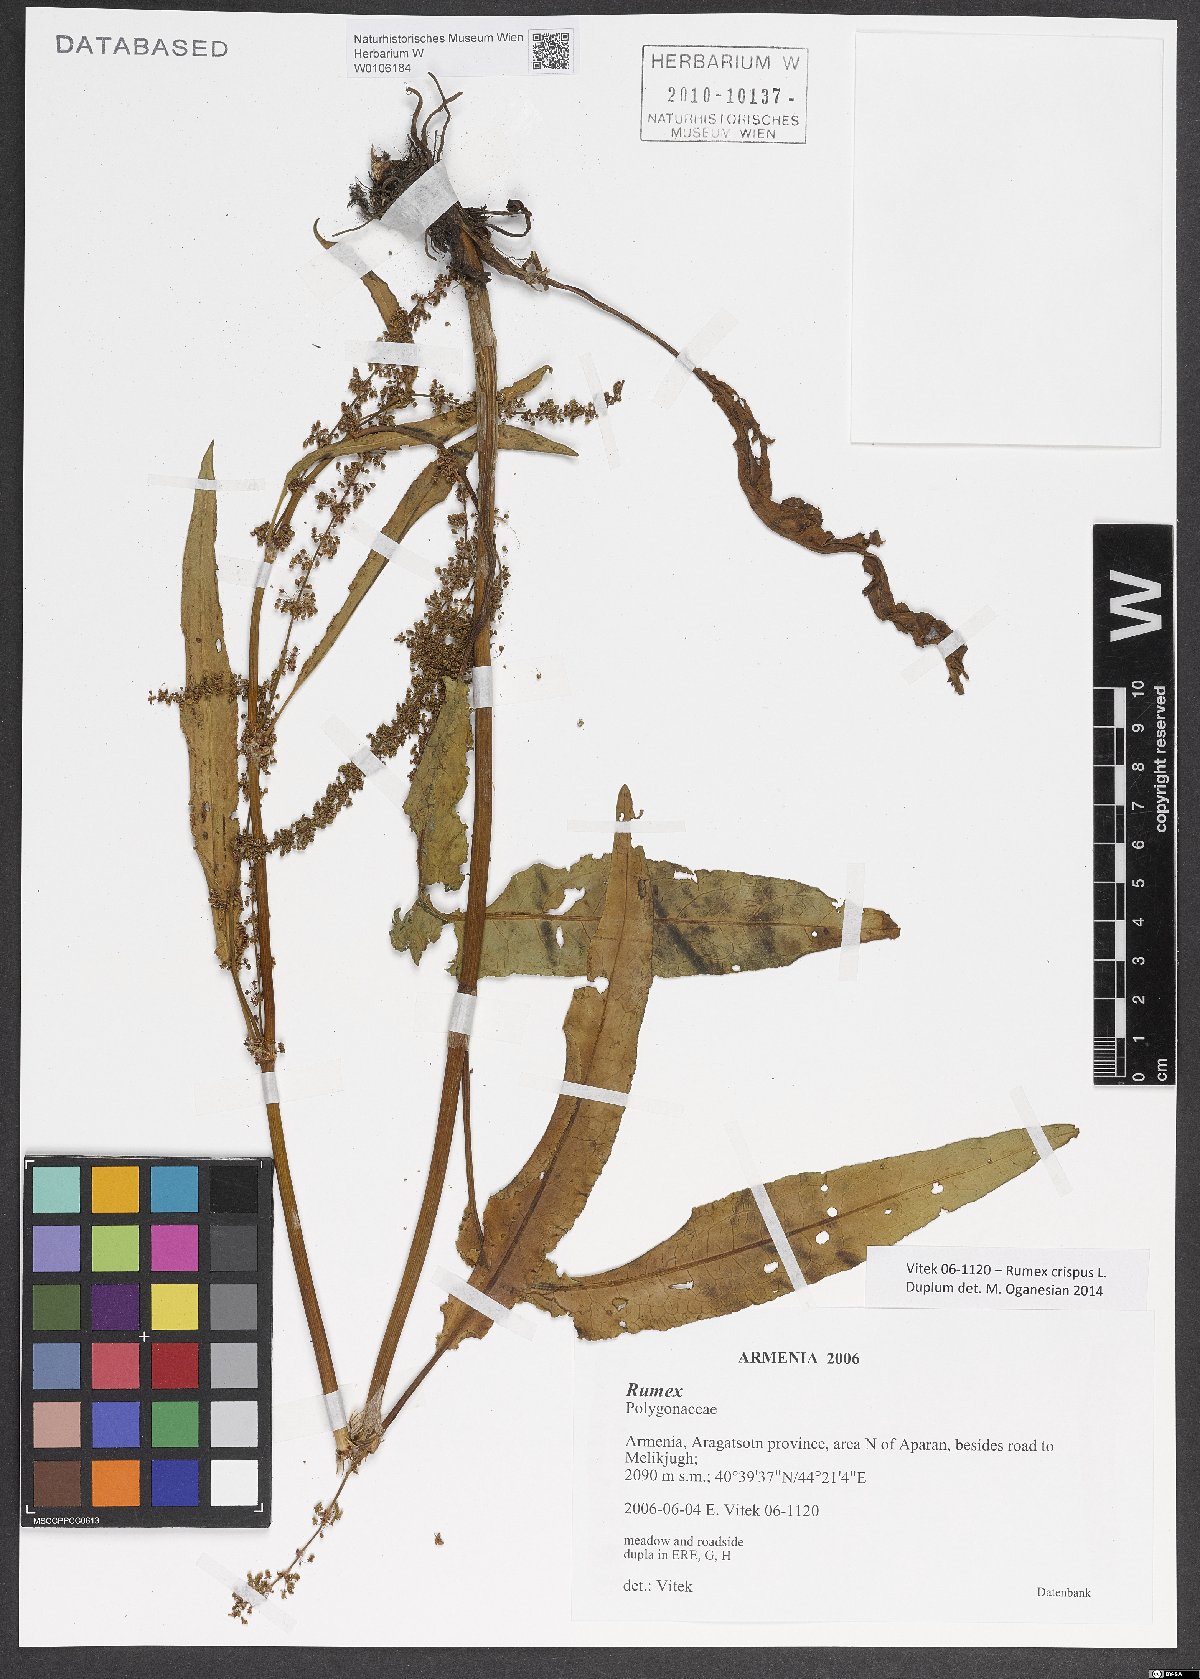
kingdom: Plantae
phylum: Tracheophyta
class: Magnoliopsida
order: Caryophyllales
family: Polygonaceae
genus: Rumex
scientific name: Rumex crispus
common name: Curled dock
